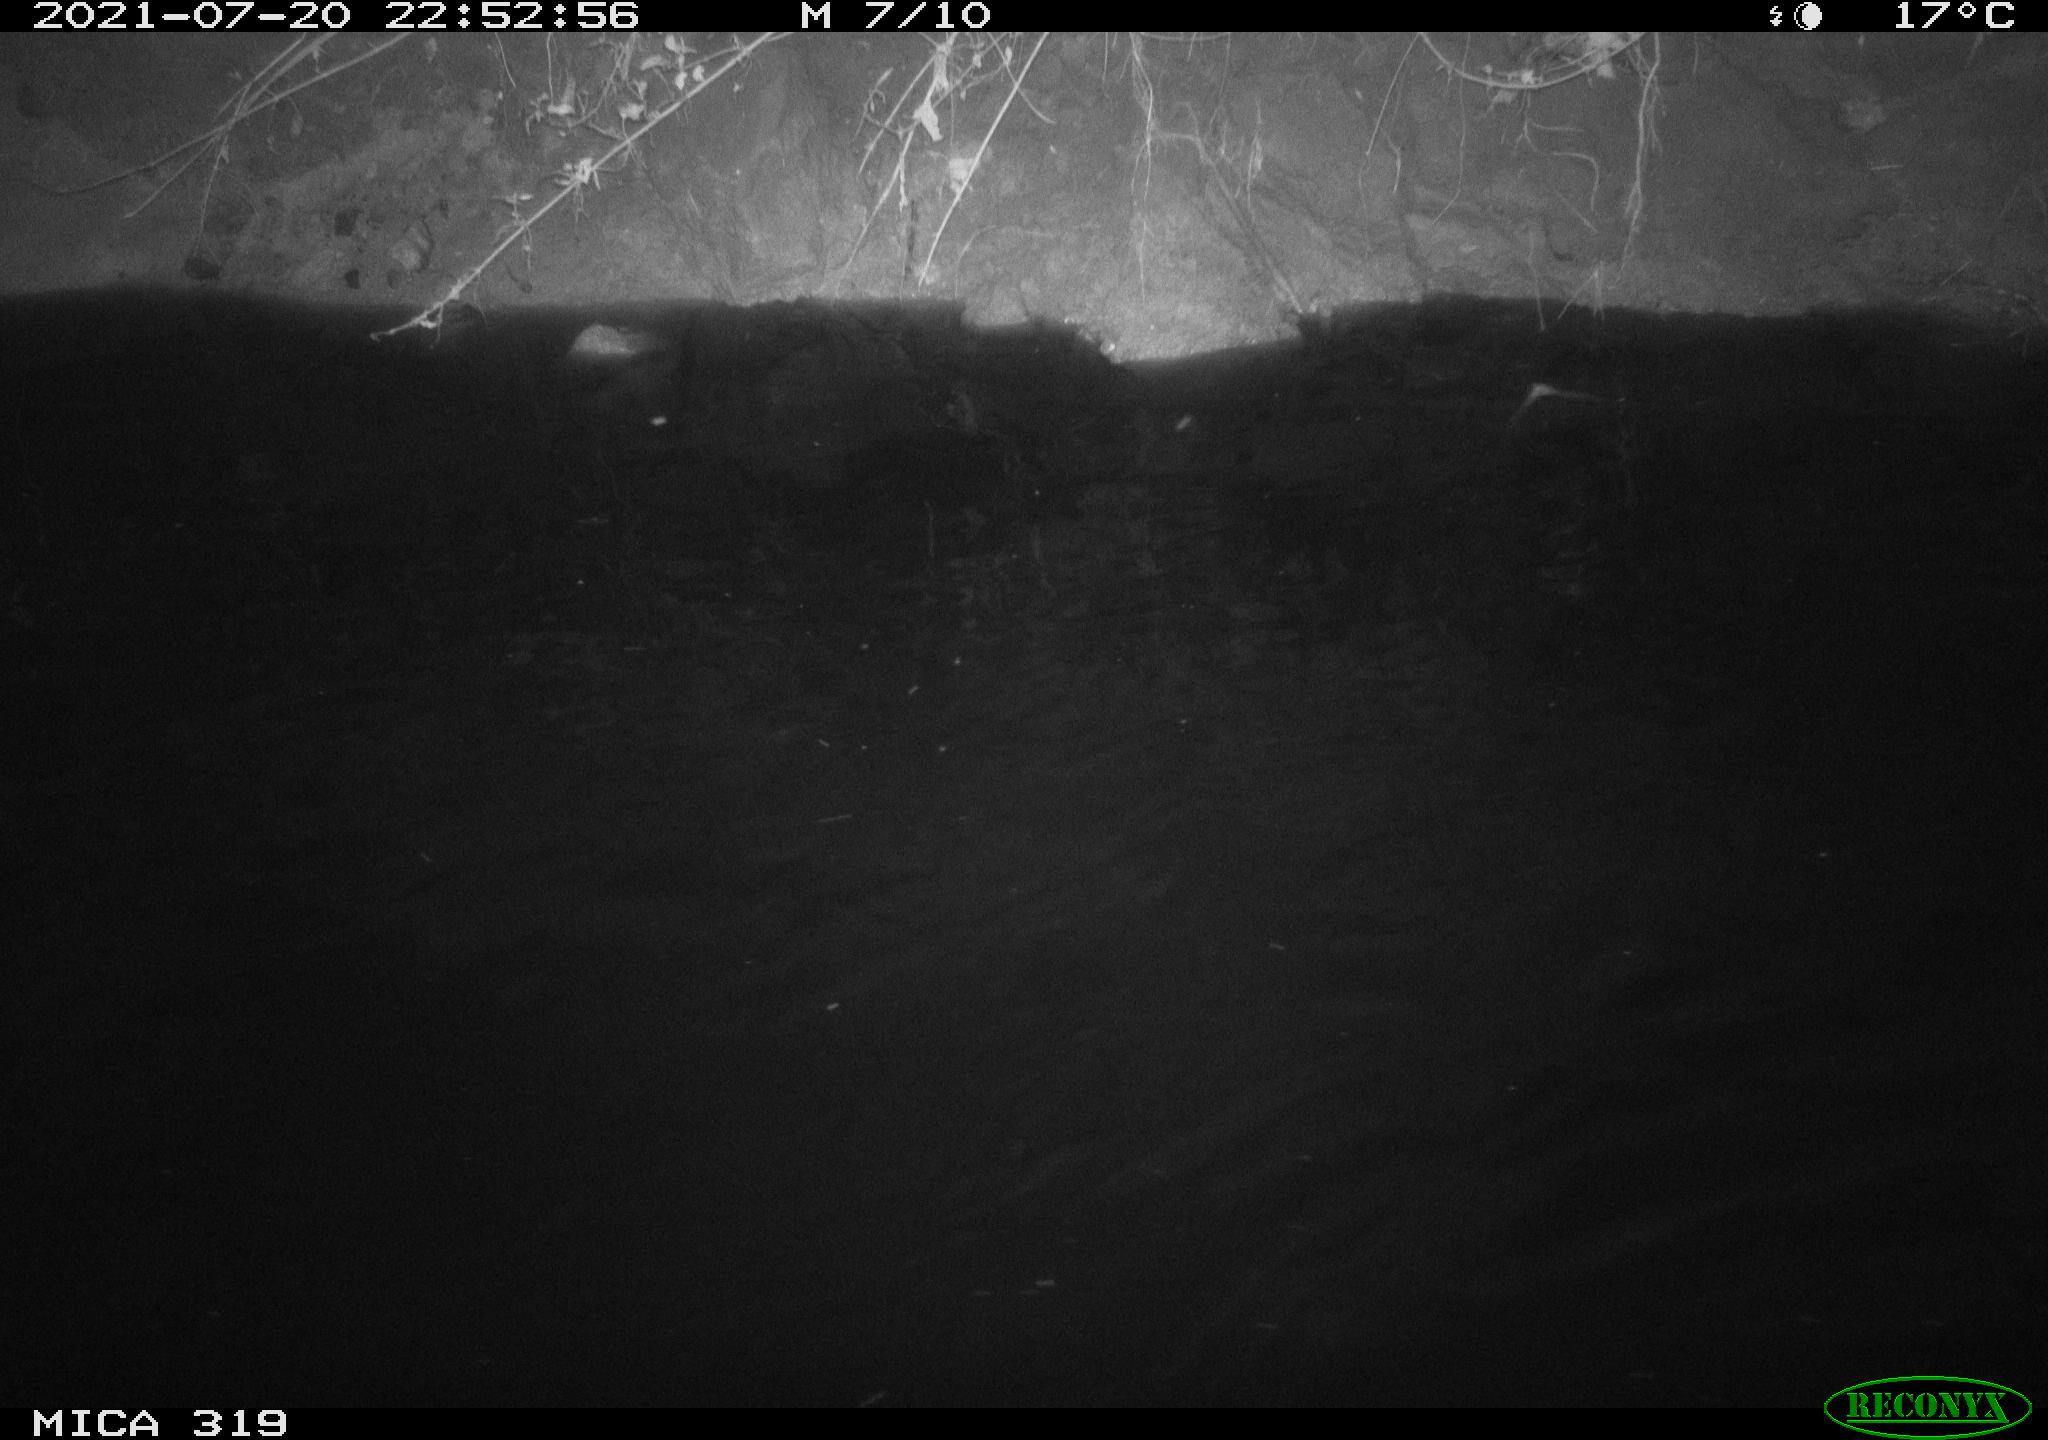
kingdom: Animalia
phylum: Chordata
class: Aves
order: Anseriformes
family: Anatidae
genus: Anas
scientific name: Anas platyrhynchos
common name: Mallard
